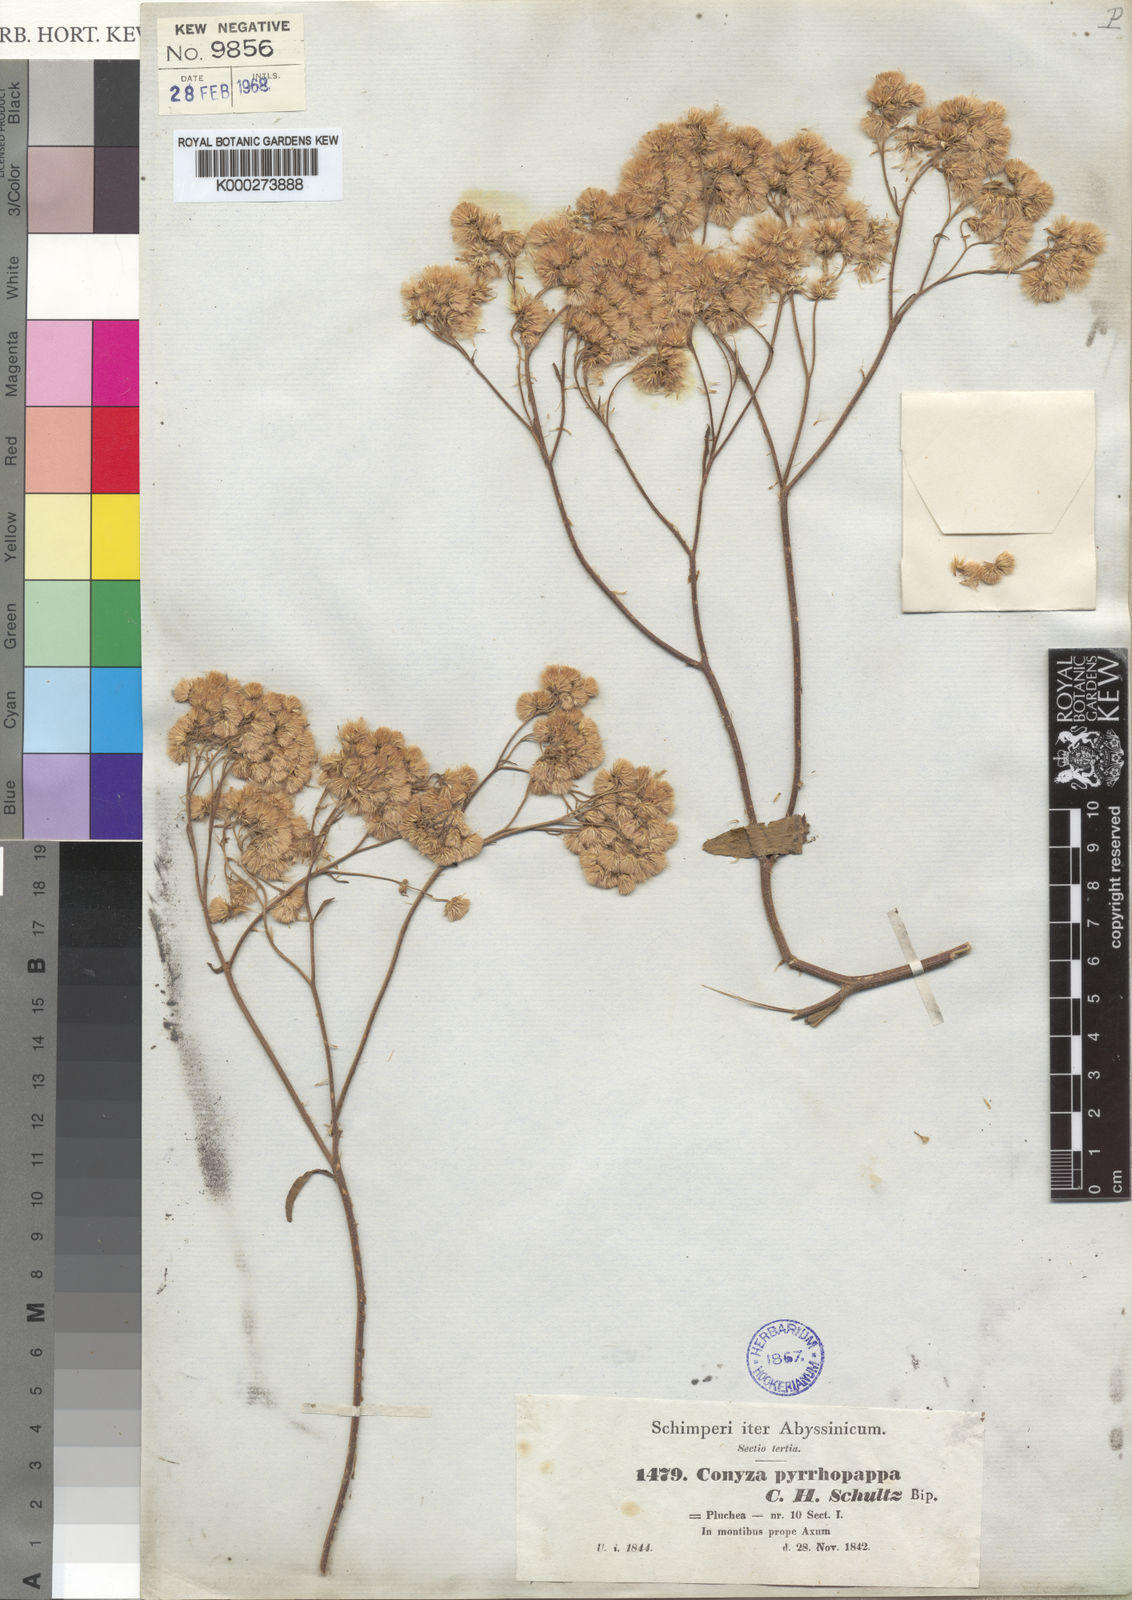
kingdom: Plantae
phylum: Tracheophyta
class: Magnoliopsida
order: Asterales
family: Asteraceae
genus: Microglossa
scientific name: Microglossa pyrrhopappa
